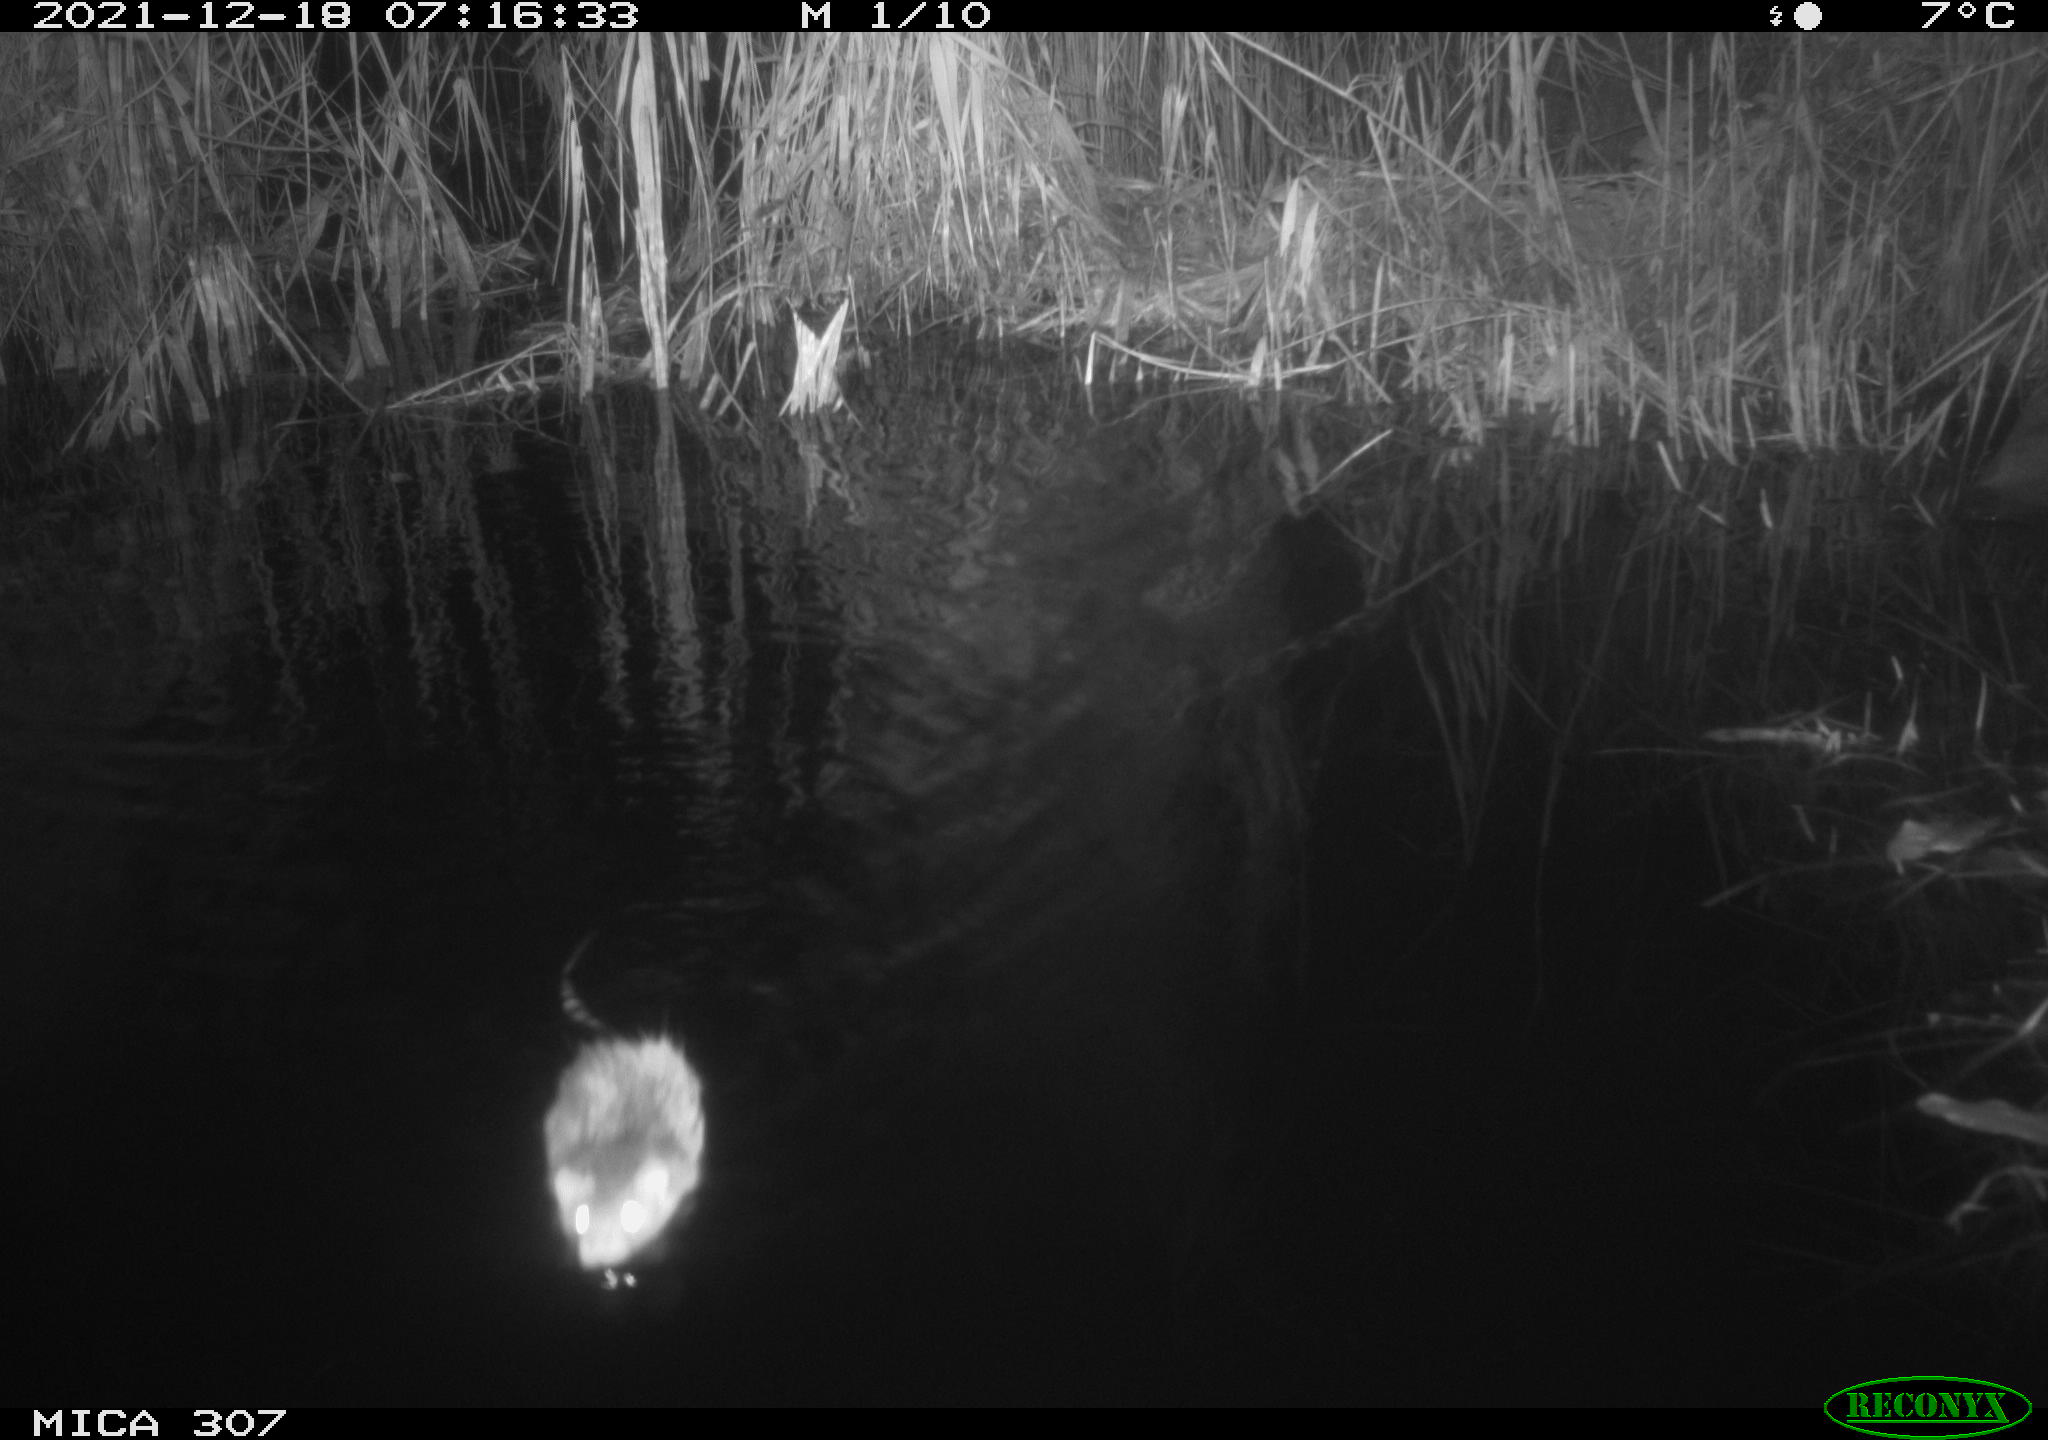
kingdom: Animalia
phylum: Chordata
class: Mammalia
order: Rodentia
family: Muridae
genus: Rattus
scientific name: Rattus norvegicus
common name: Brown rat
